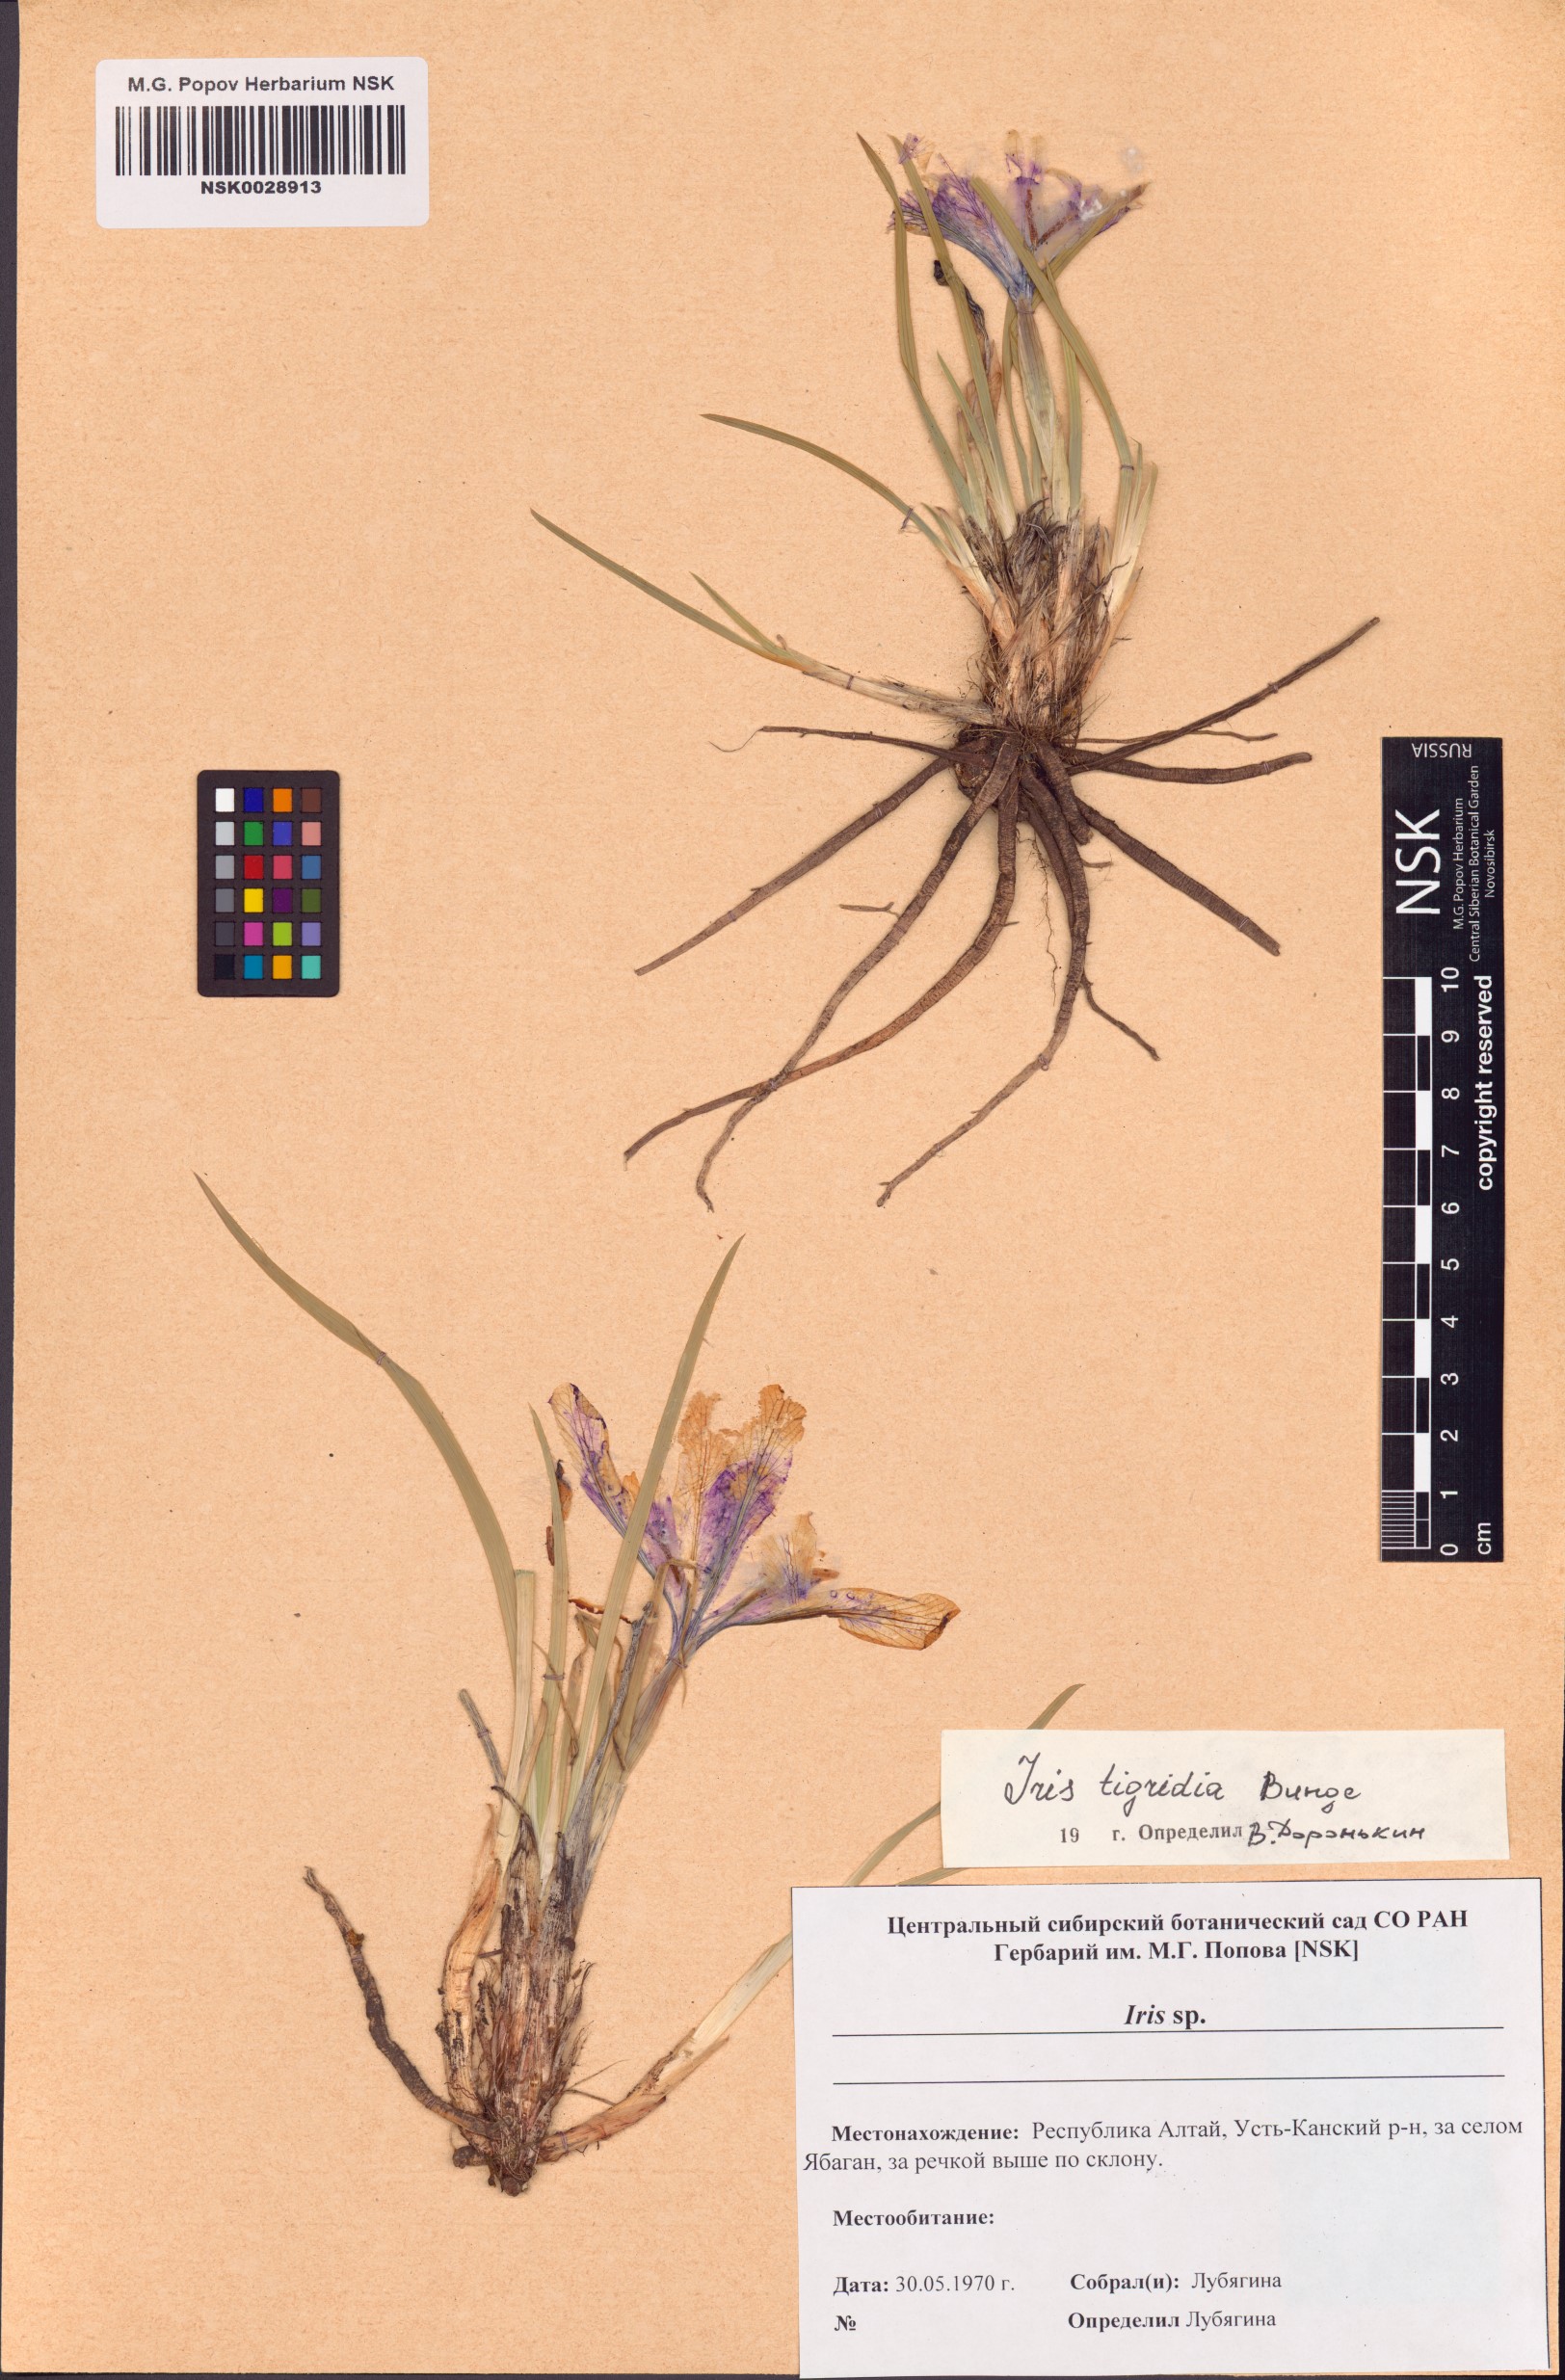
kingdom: Plantae
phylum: Tracheophyta
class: Liliopsida
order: Asparagales
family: Iridaceae
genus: Iris
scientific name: Iris tigridia
